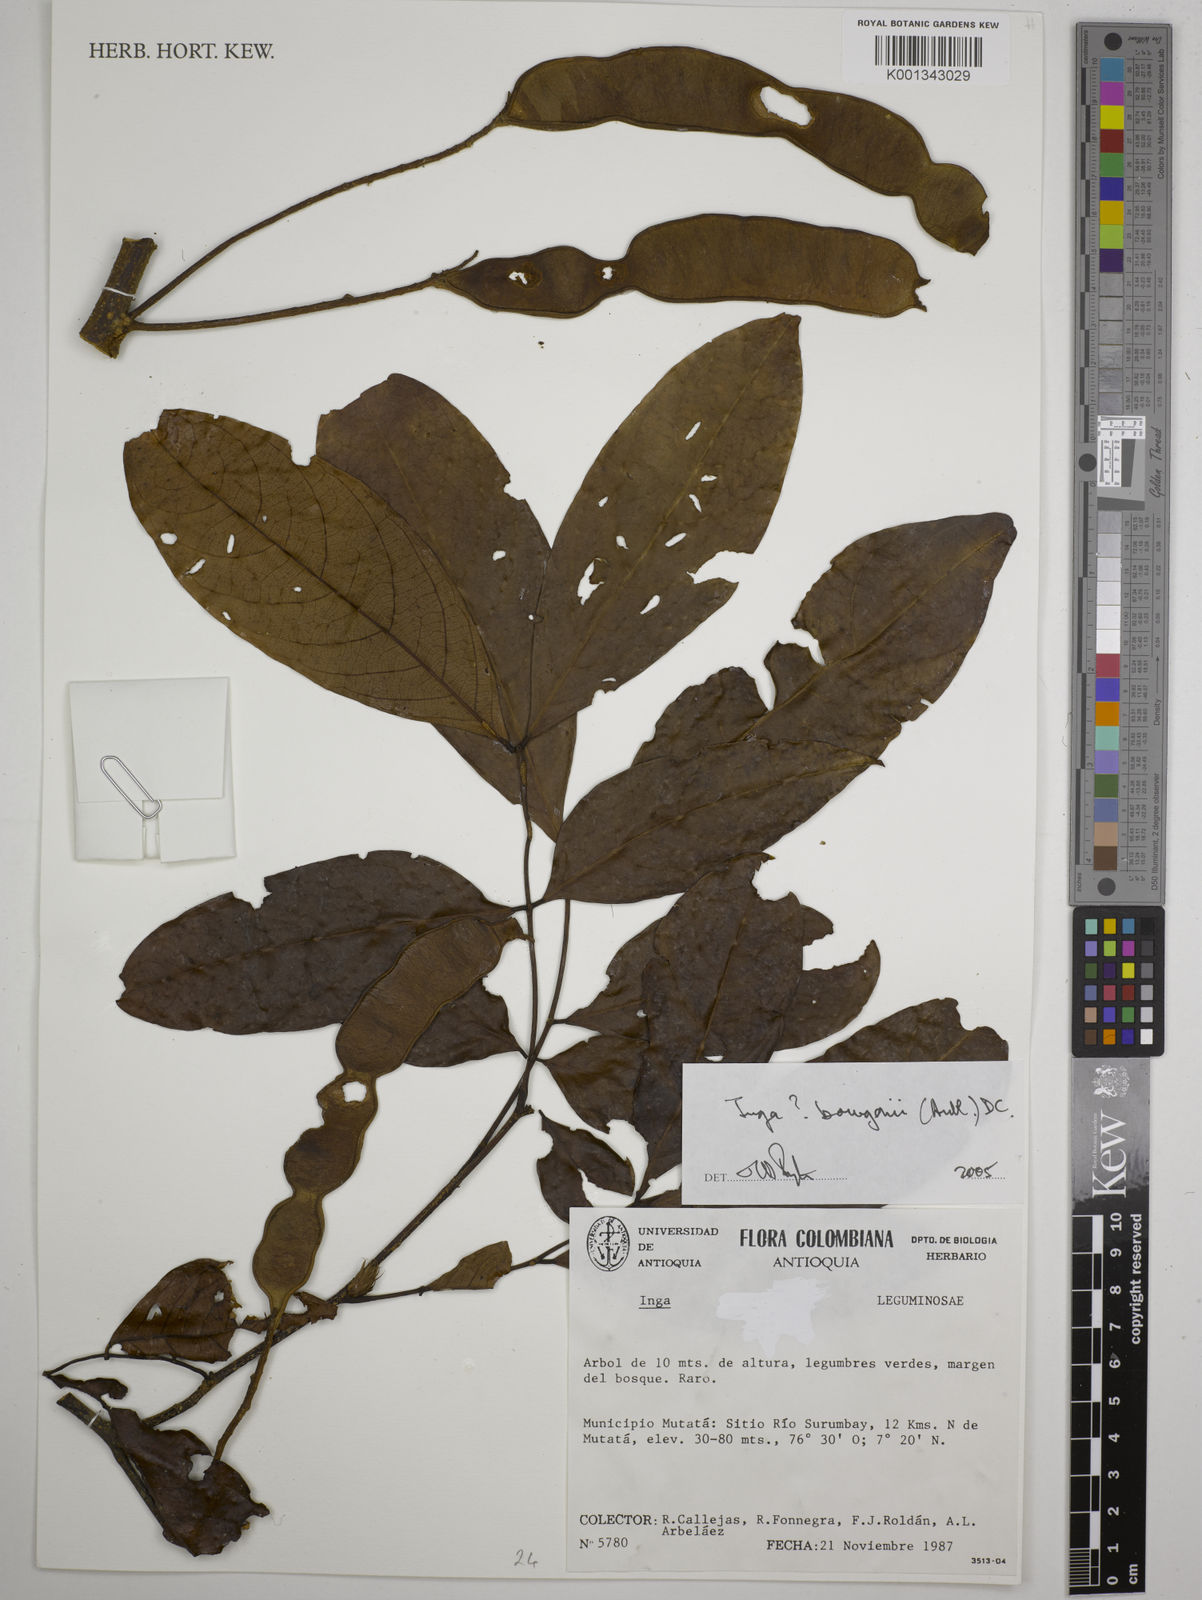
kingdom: Plantae
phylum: Tracheophyta
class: Magnoliopsida
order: Fabales
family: Fabaceae
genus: Inga
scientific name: Inga bourgoni
